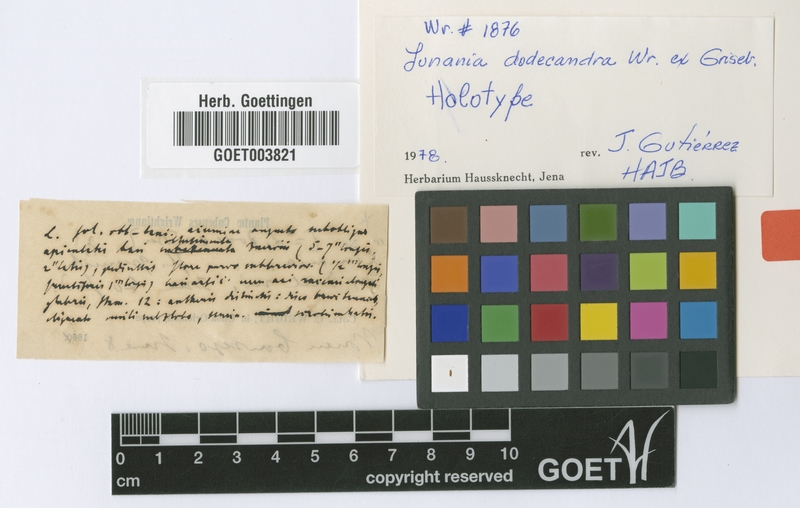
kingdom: Plantae
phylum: Tracheophyta
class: Magnoliopsida
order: Malpighiales
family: Salicaceae
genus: Lunania
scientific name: Lunania dodecandra
